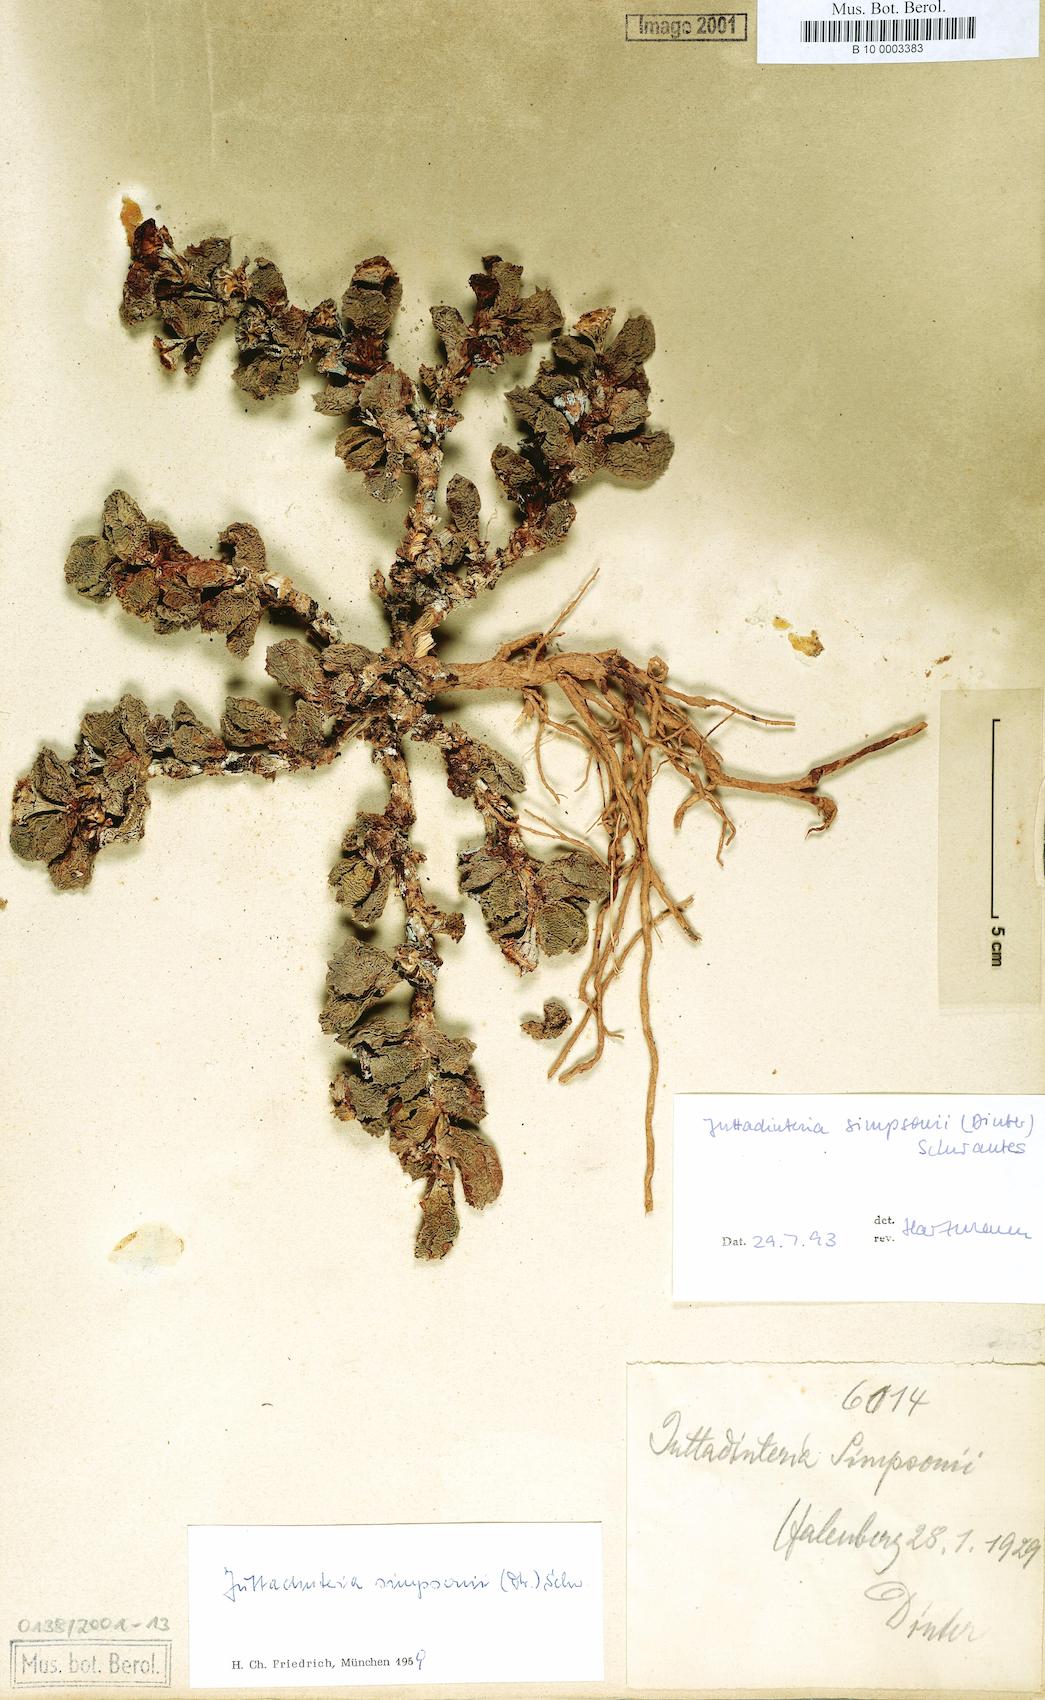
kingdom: Plantae
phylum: Tracheophyta
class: Magnoliopsida
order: Caryophyllales
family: Aizoaceae
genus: Juttadinteria
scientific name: Juttadinteria simpsonii
